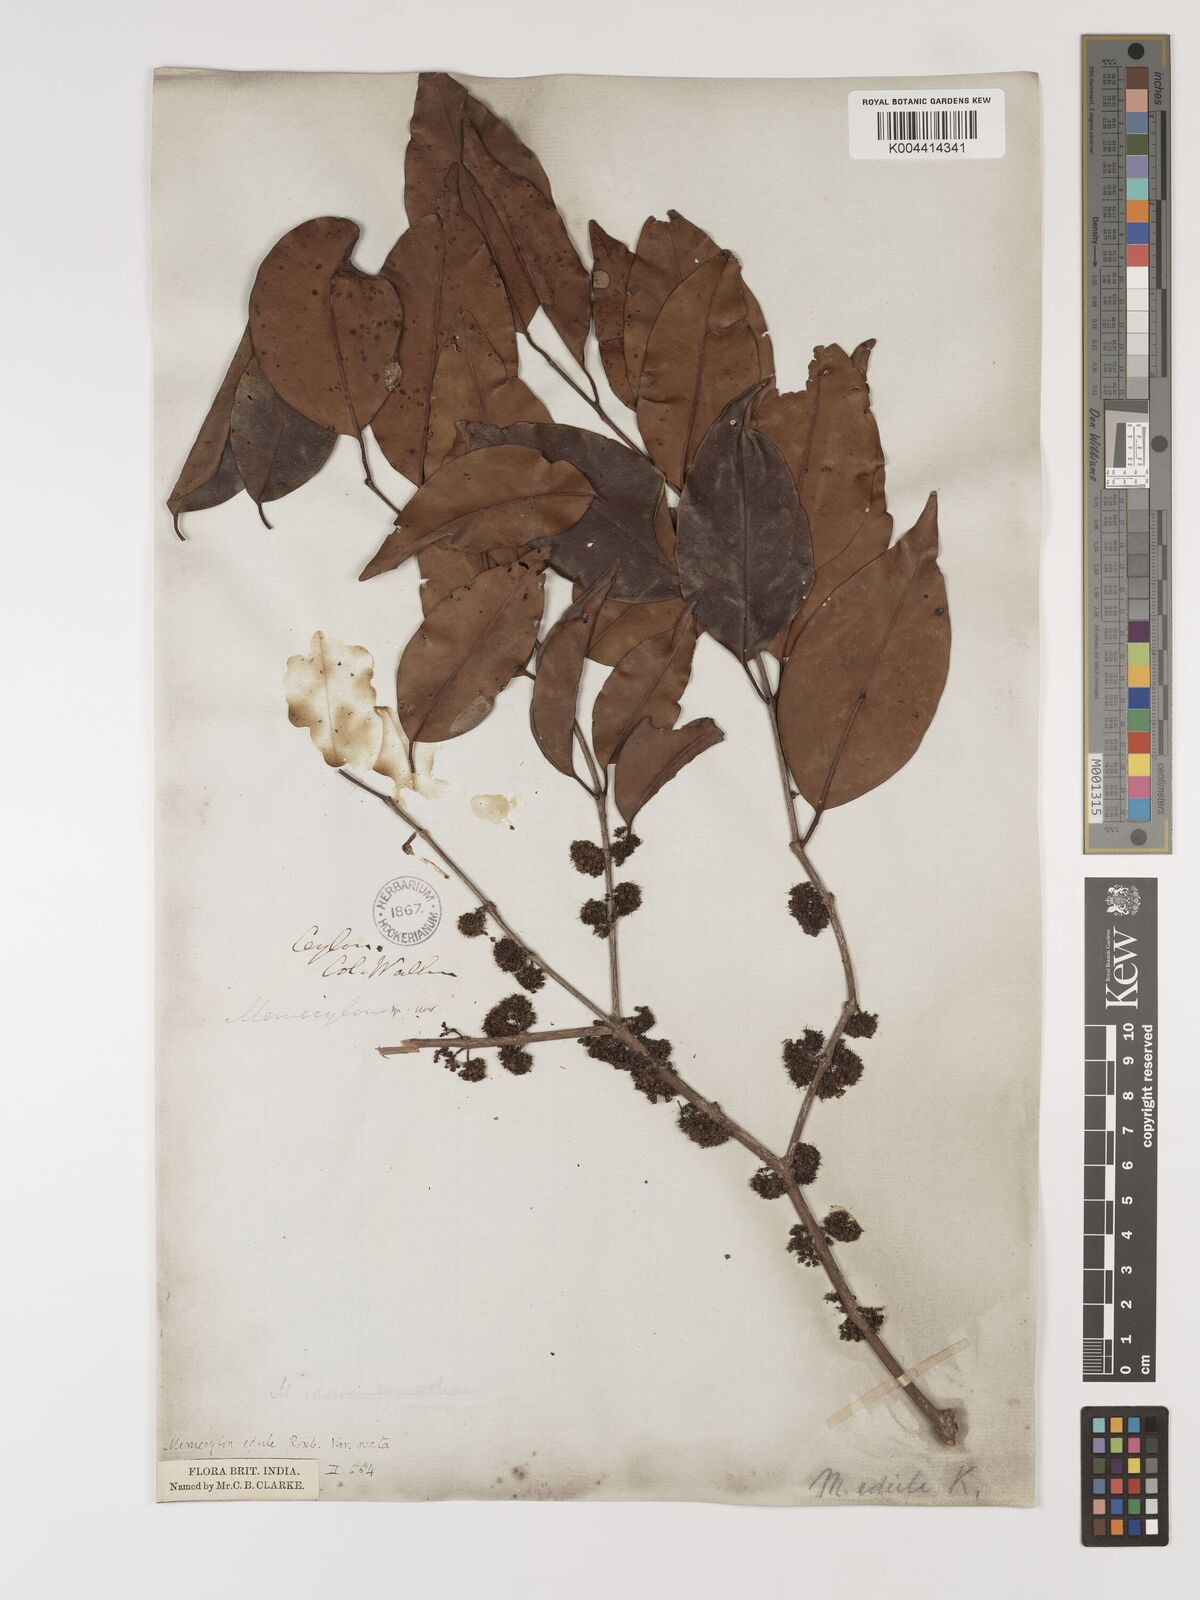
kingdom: Plantae
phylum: Tracheophyta
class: Magnoliopsida
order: Myrtales
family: Melastomataceae
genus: Memecylon
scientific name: Memecylon edule
